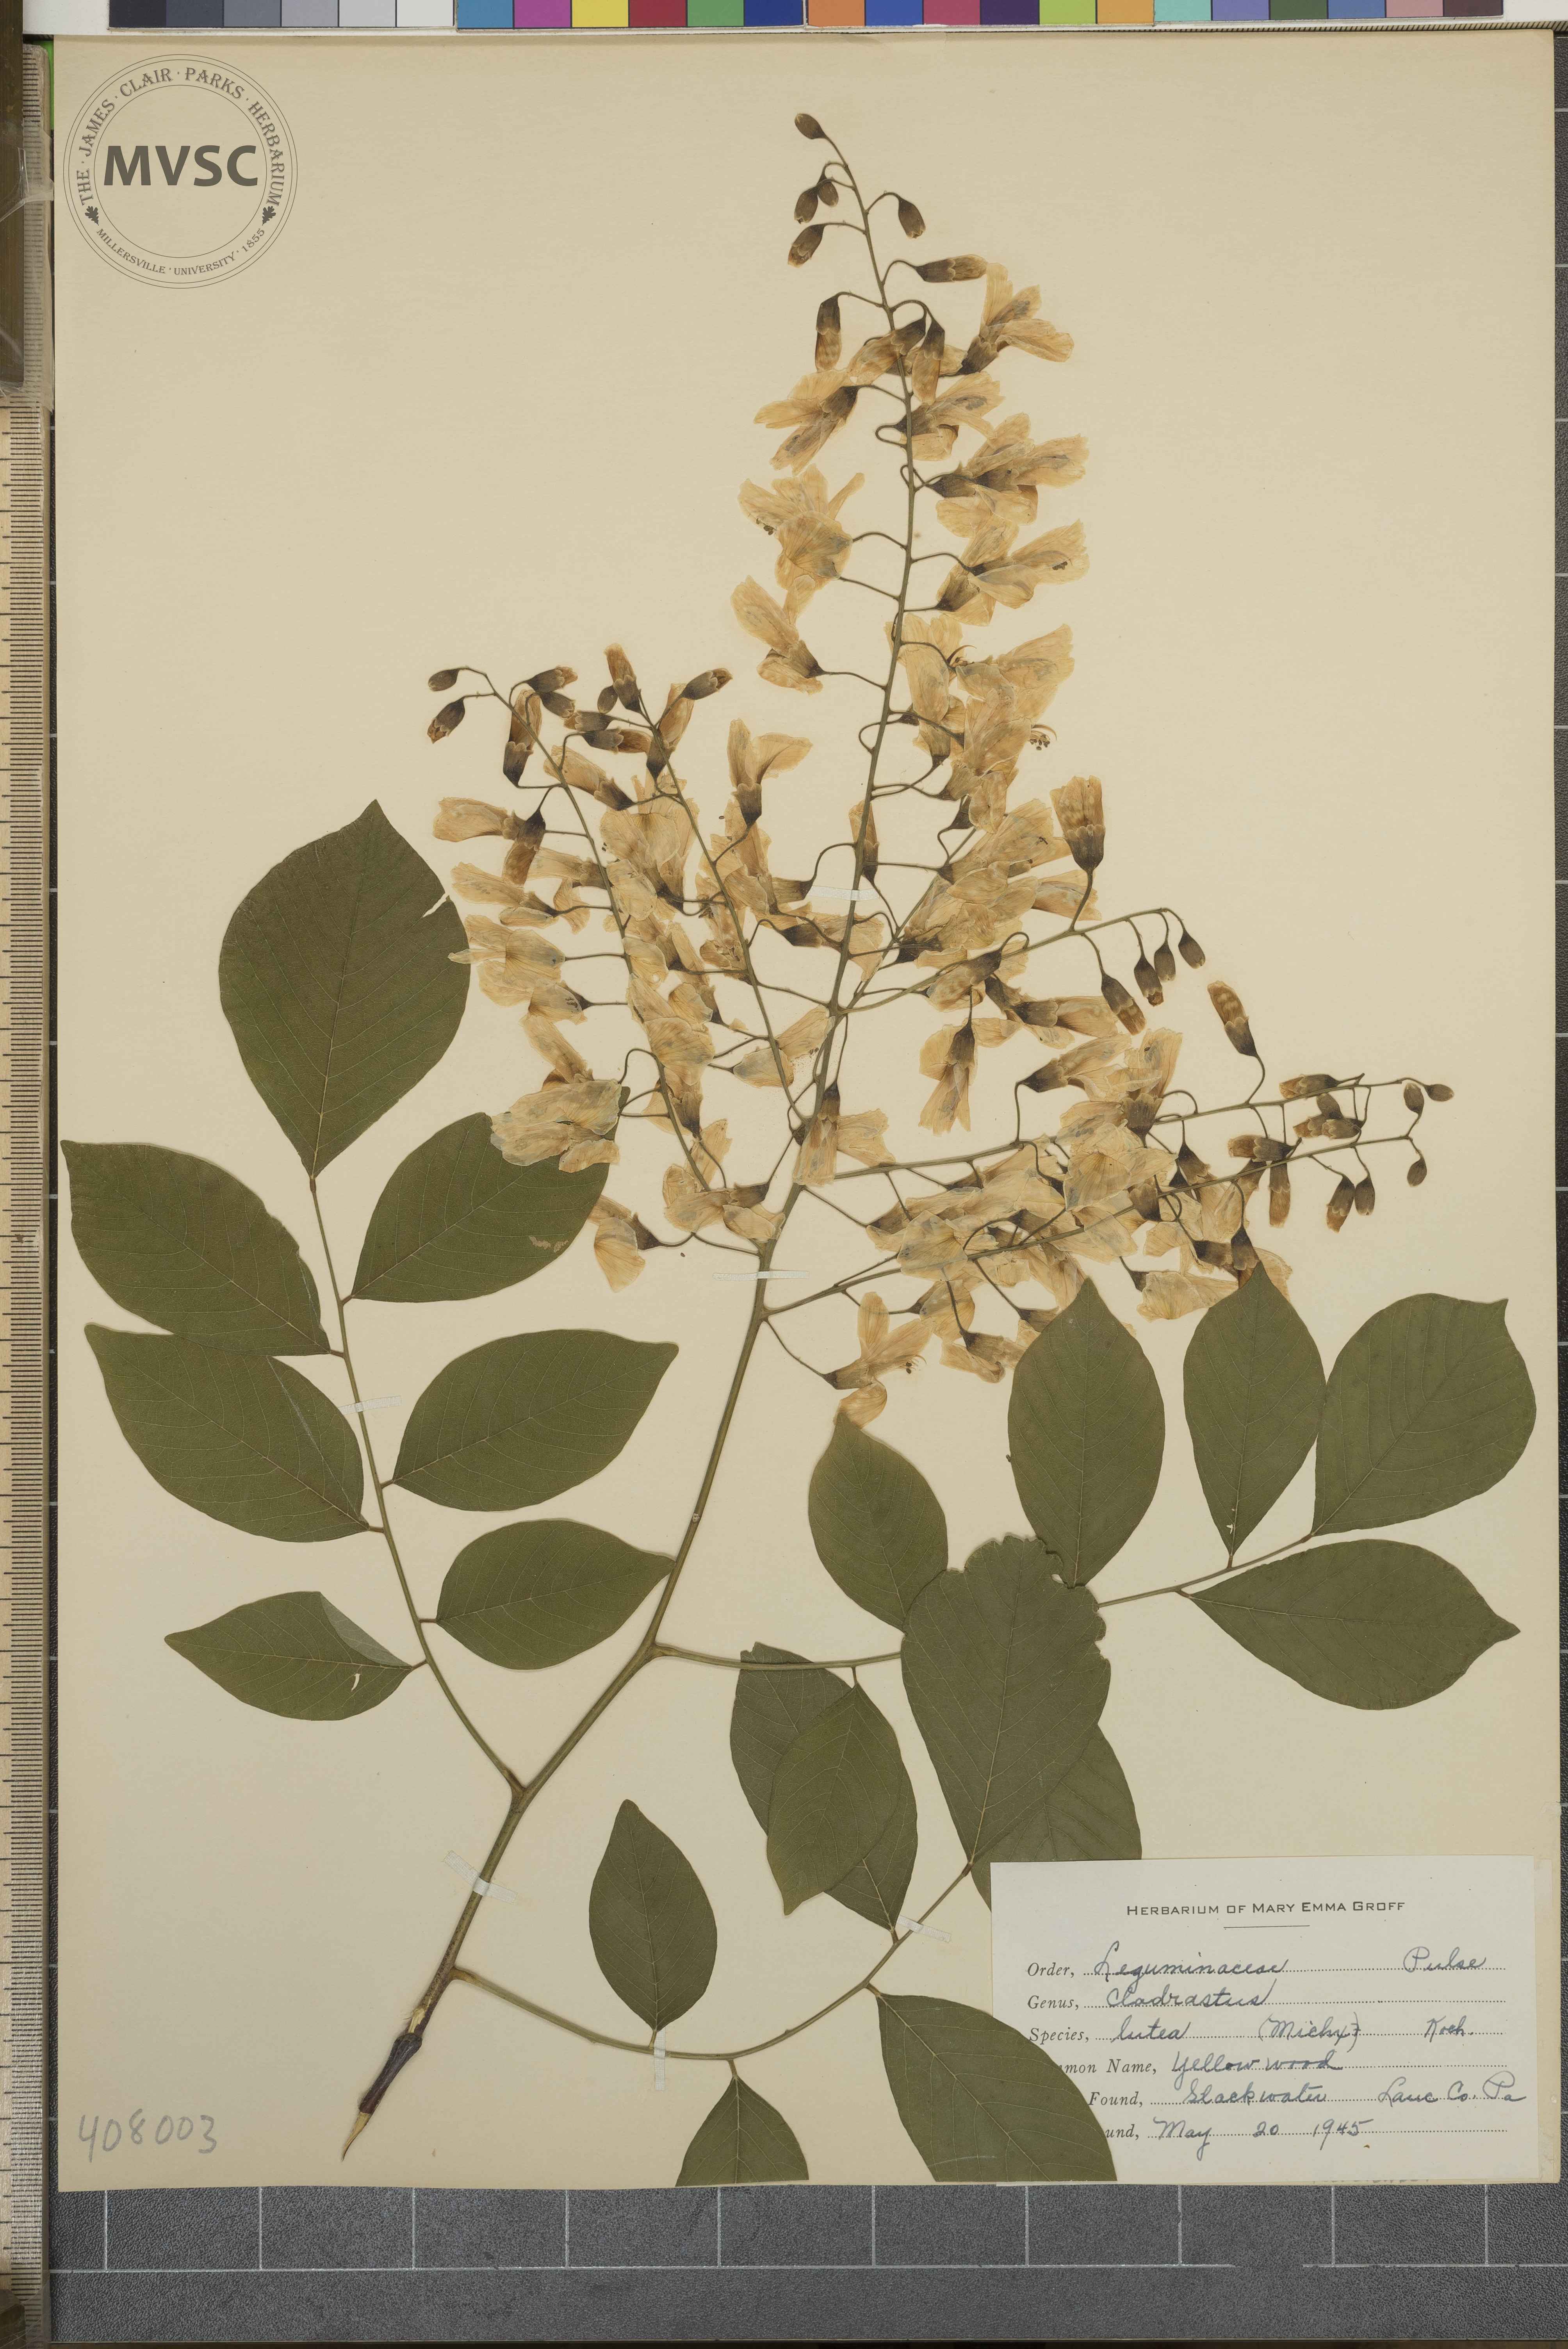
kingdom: Plantae
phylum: Tracheophyta
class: Magnoliopsida
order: Fabales
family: Fabaceae
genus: Cladrastis
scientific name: Cladrastis kentukea
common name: Yellow wood
